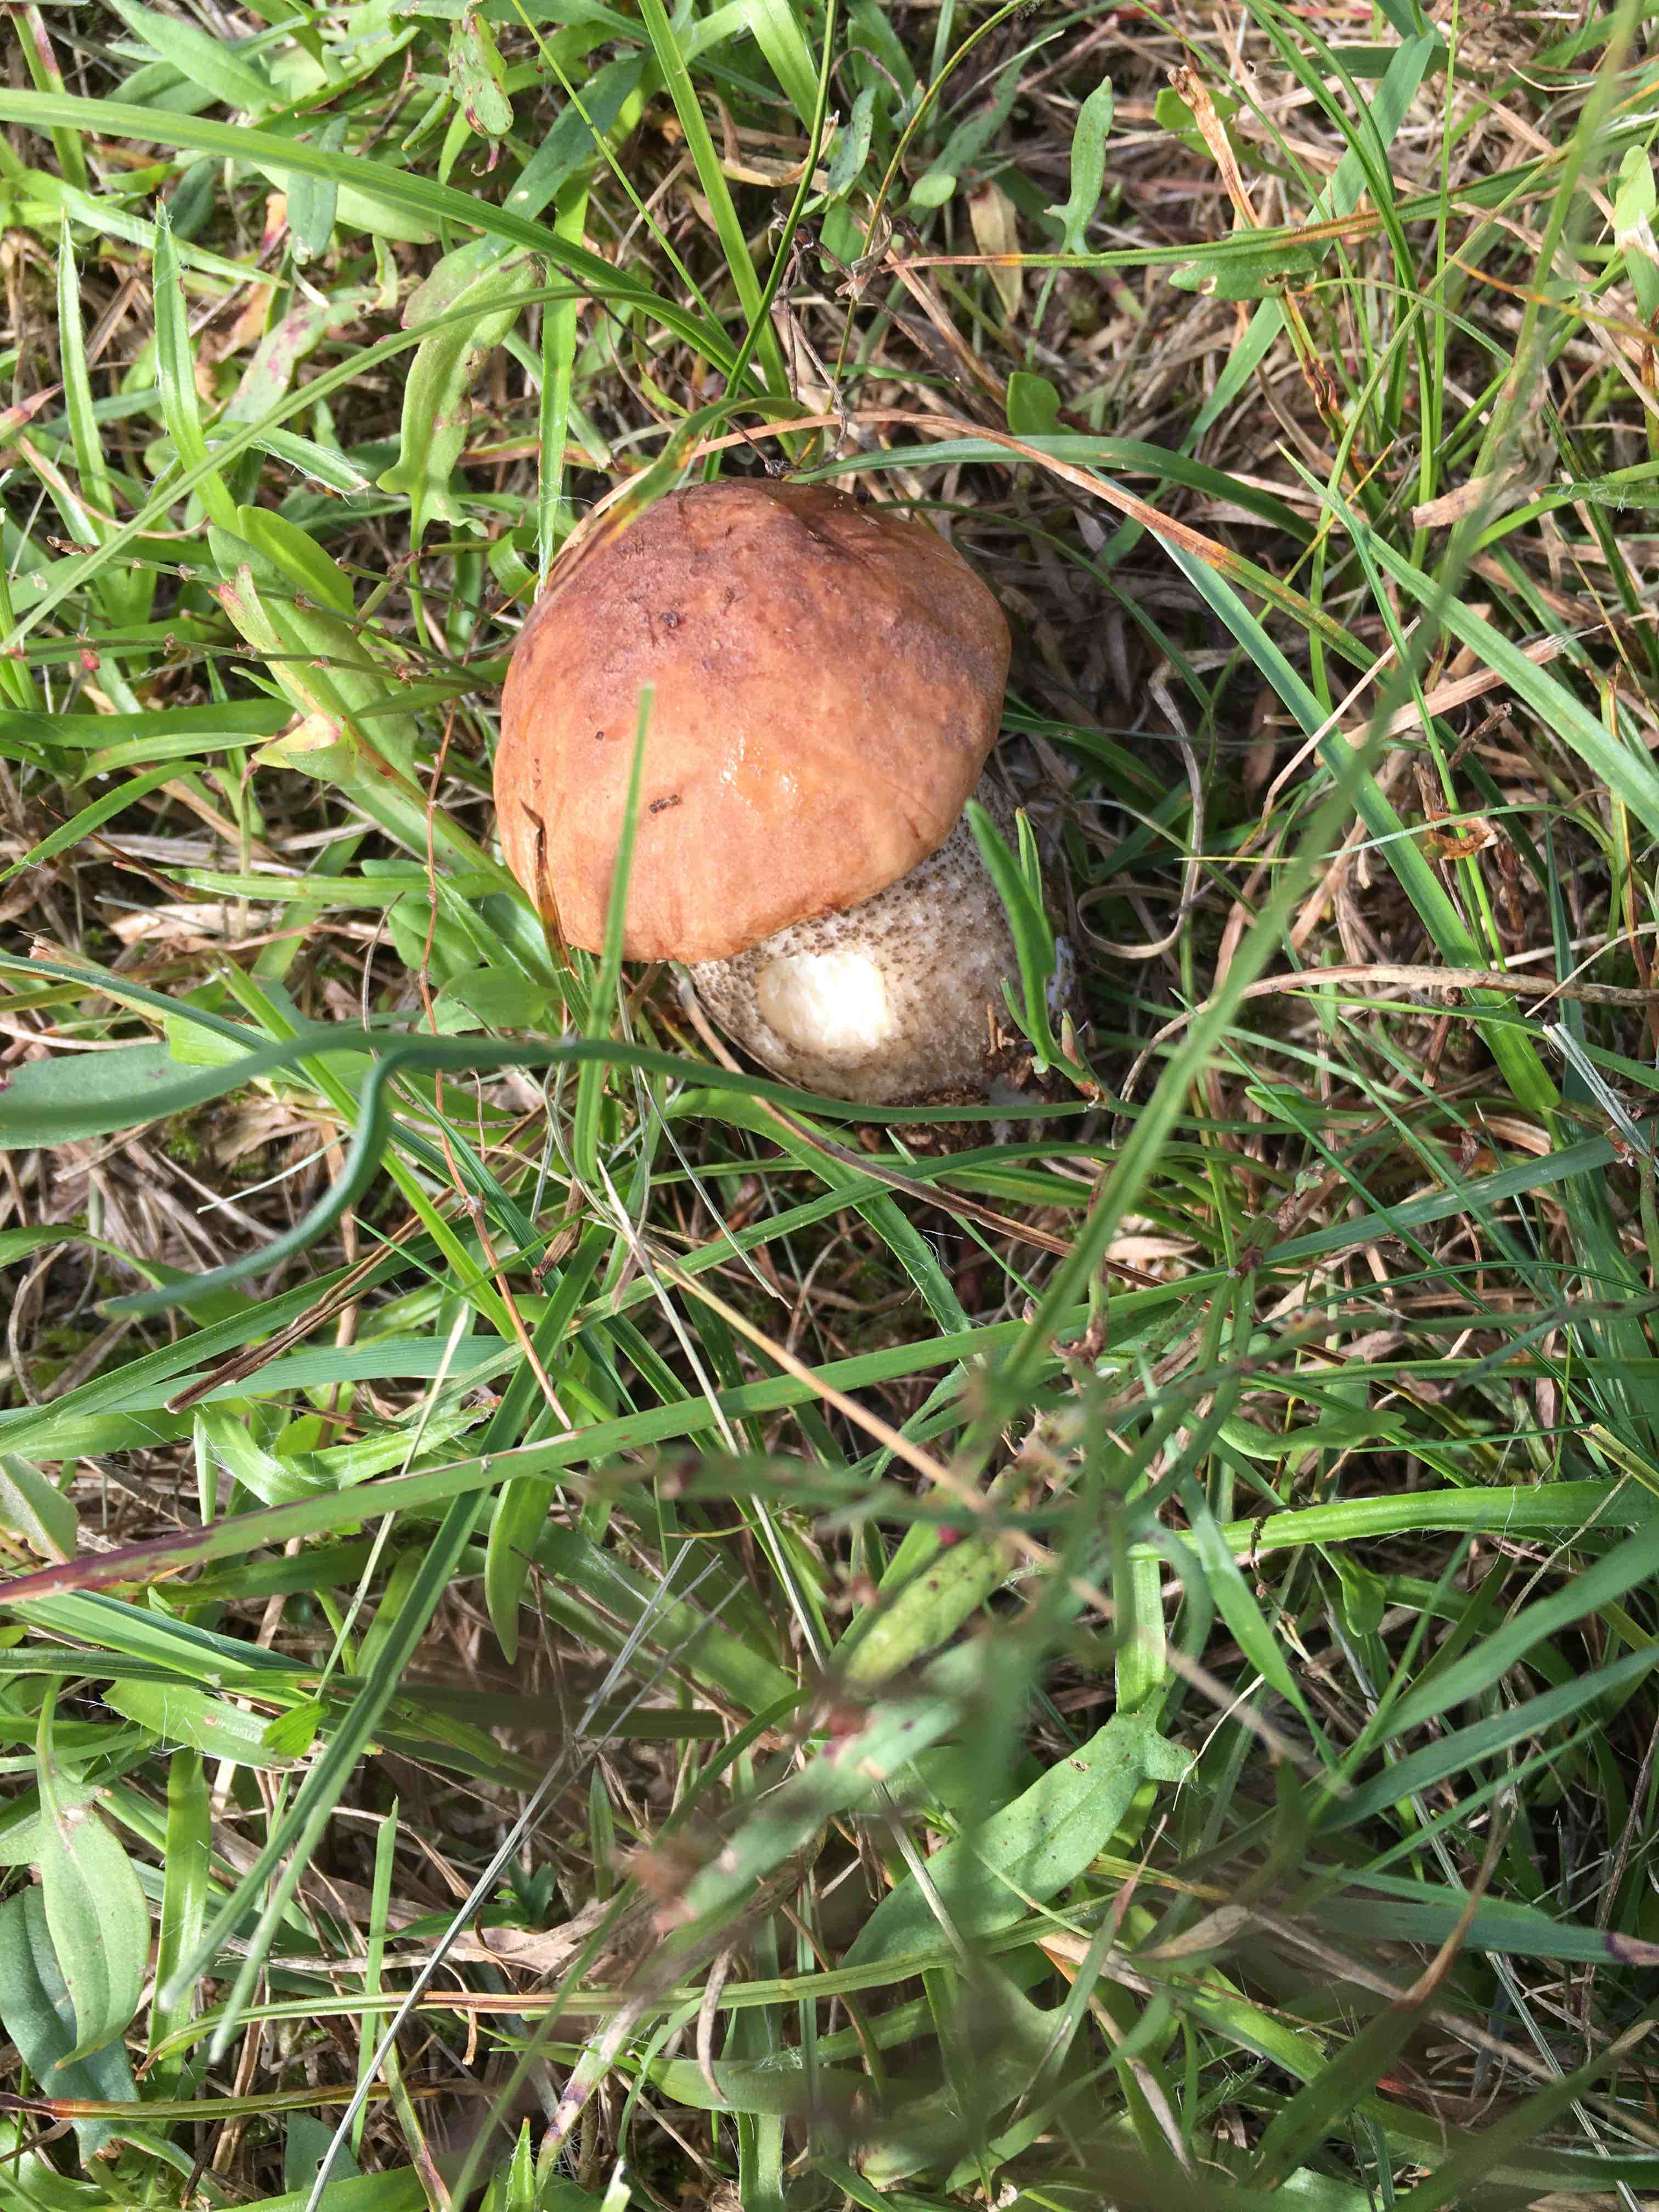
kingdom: Fungi
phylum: Basidiomycota
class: Agaricomycetes
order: Boletales
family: Boletaceae
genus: Leccinellum
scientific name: Leccinellum
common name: skælrørhat
